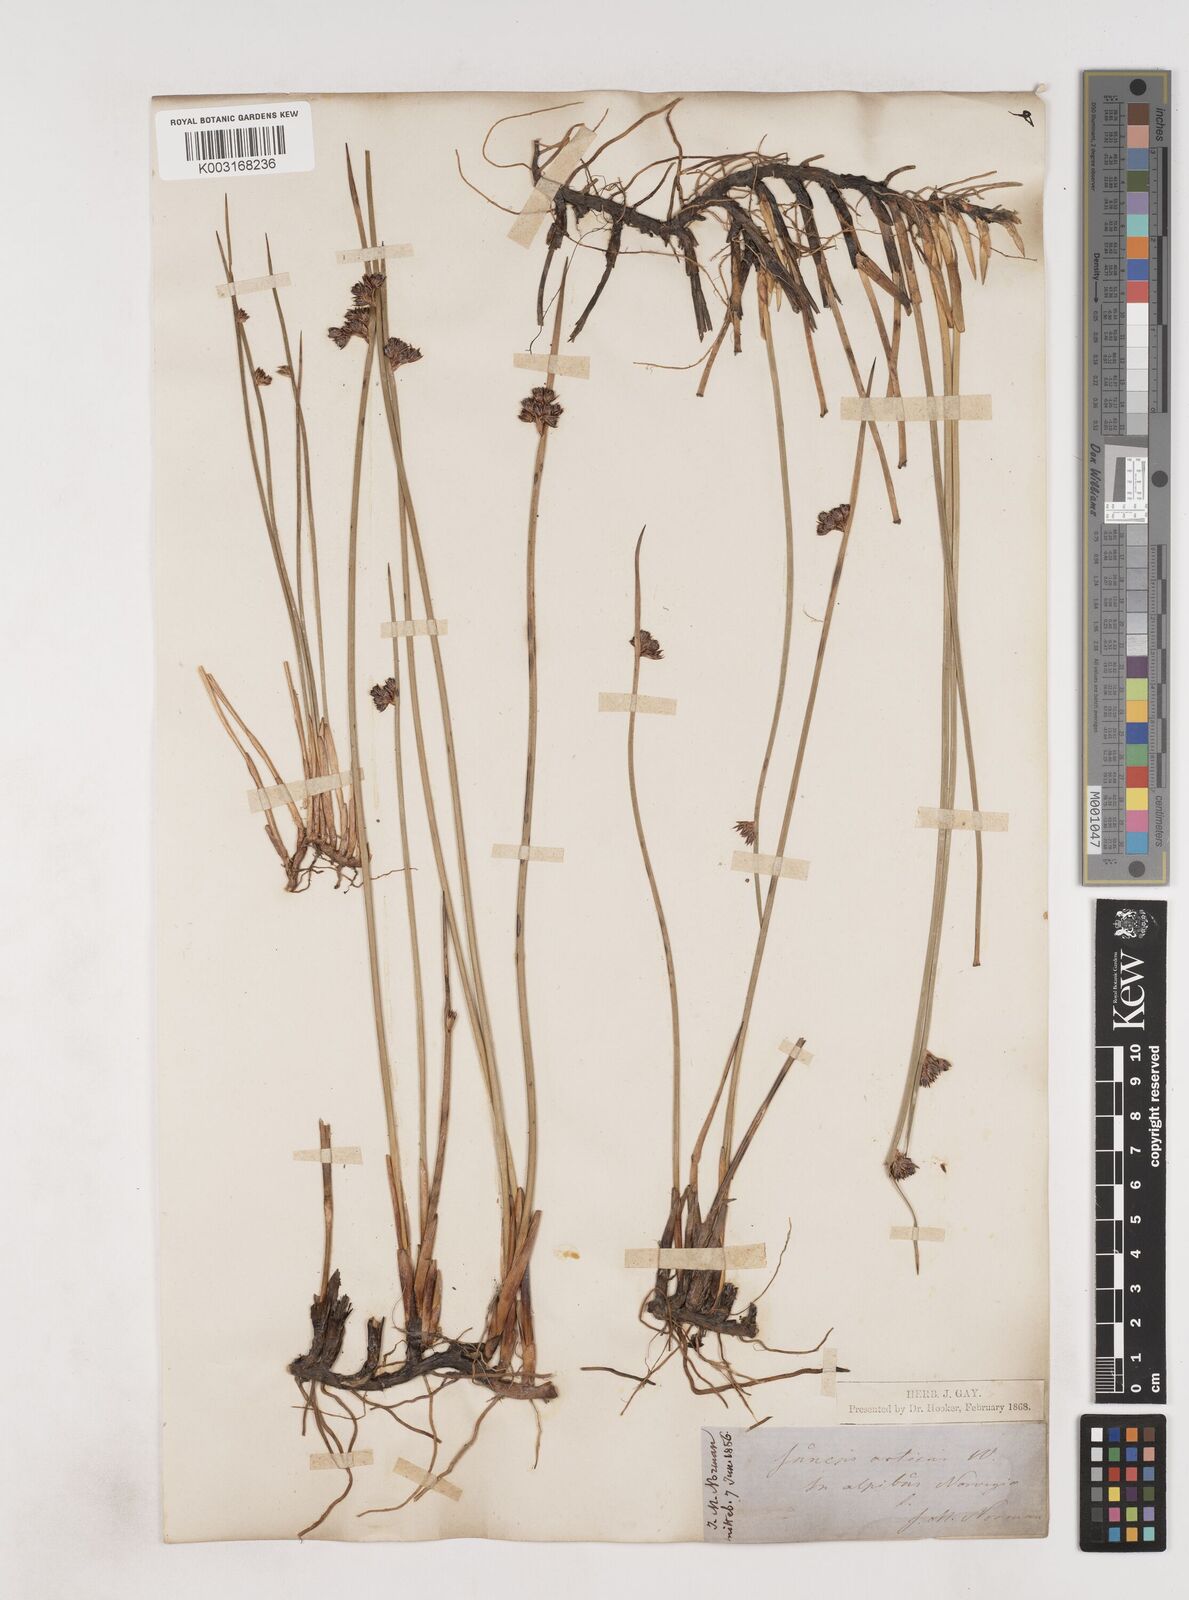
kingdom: Plantae
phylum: Tracheophyta
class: Liliopsida
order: Poales
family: Juncaceae
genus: Juncus
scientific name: Juncus arcticus
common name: Arctic rush
